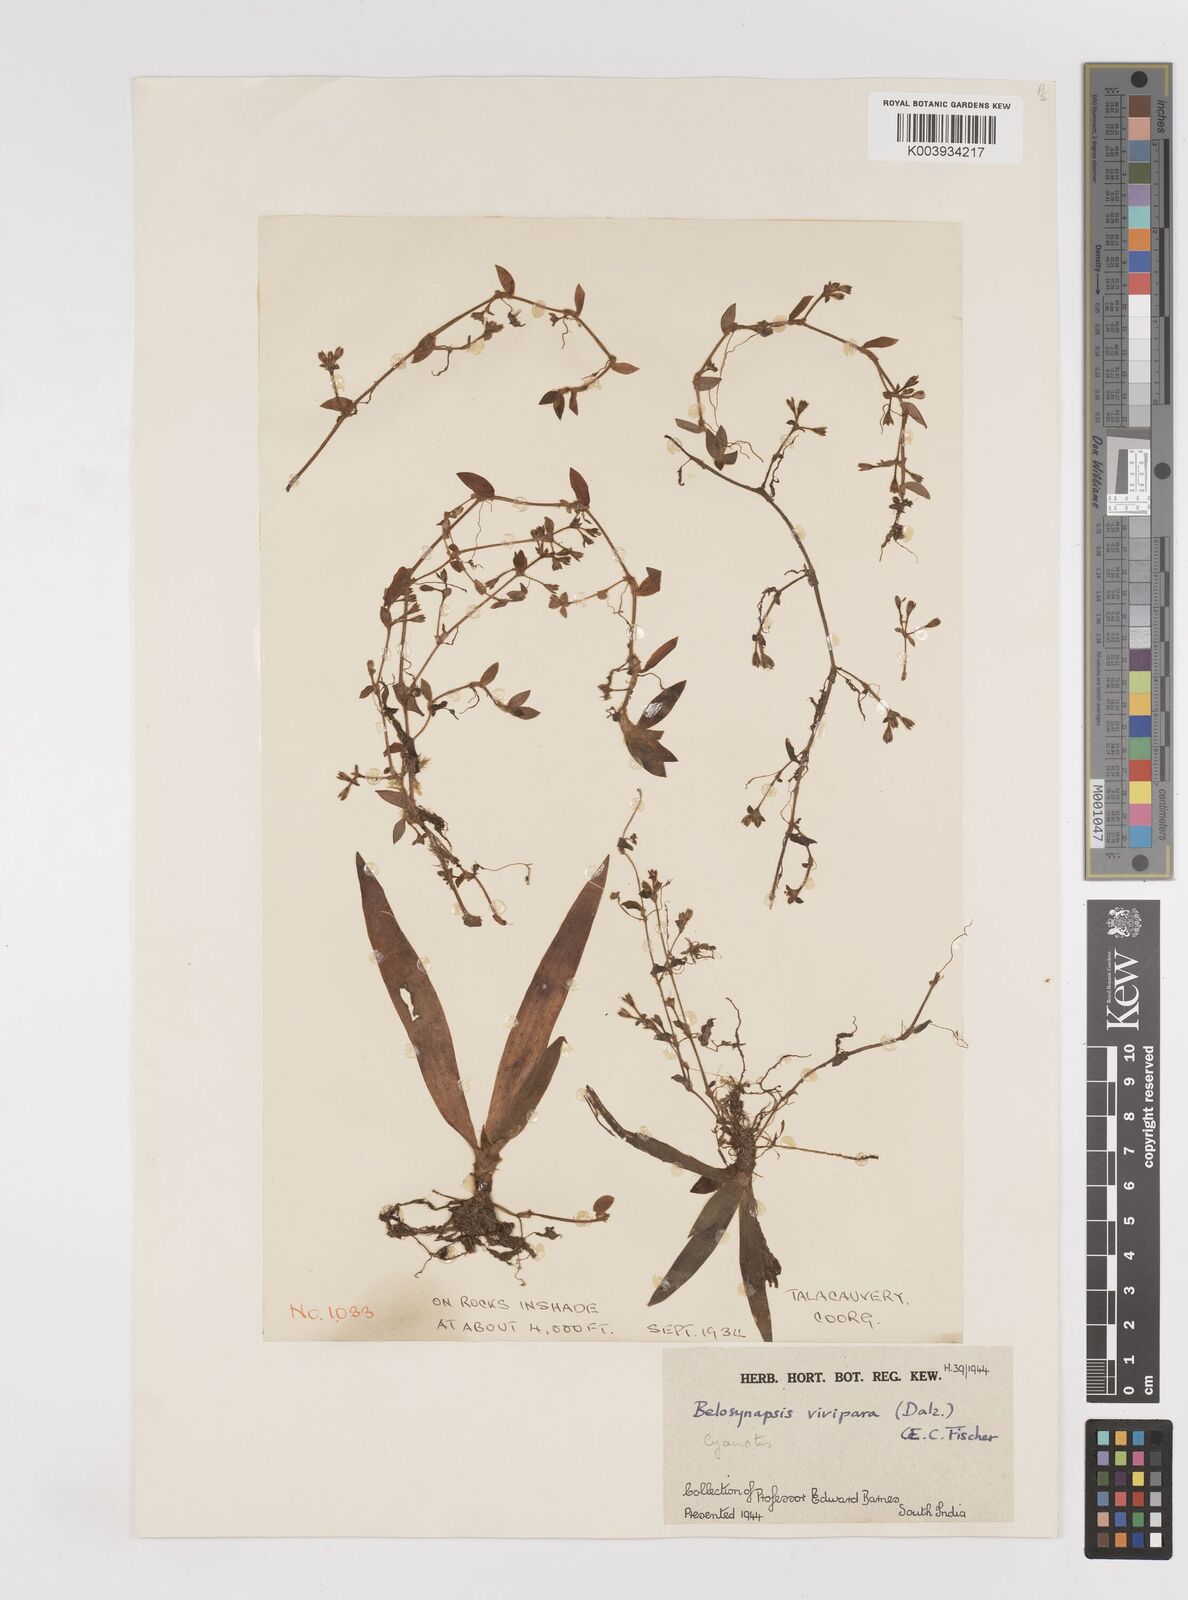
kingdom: Plantae
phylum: Tracheophyta
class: Liliopsida
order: Commelinales
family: Commelinaceae
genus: Cyanotis
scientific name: Cyanotis vivipara
